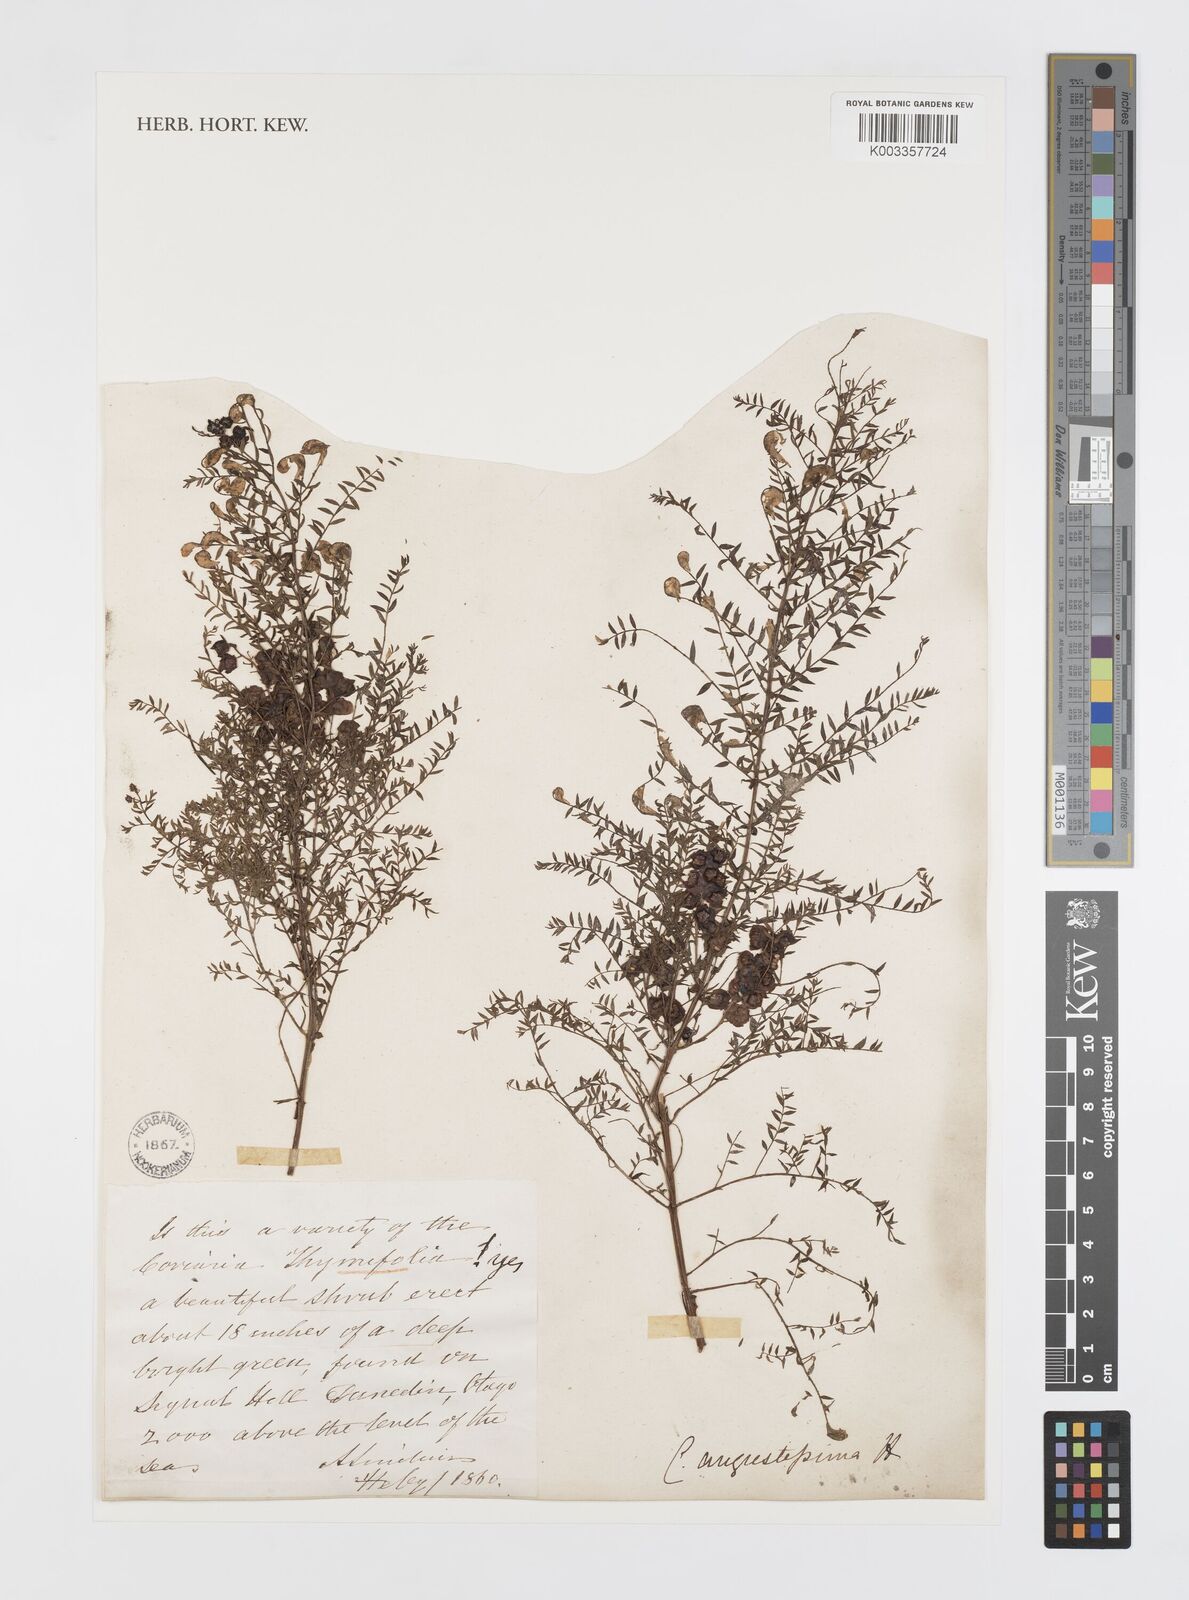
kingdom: Plantae
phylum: Tracheophyta
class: Magnoliopsida
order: Cucurbitales
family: Coriariaceae
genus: Coriaria
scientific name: Coriaria angustissima
